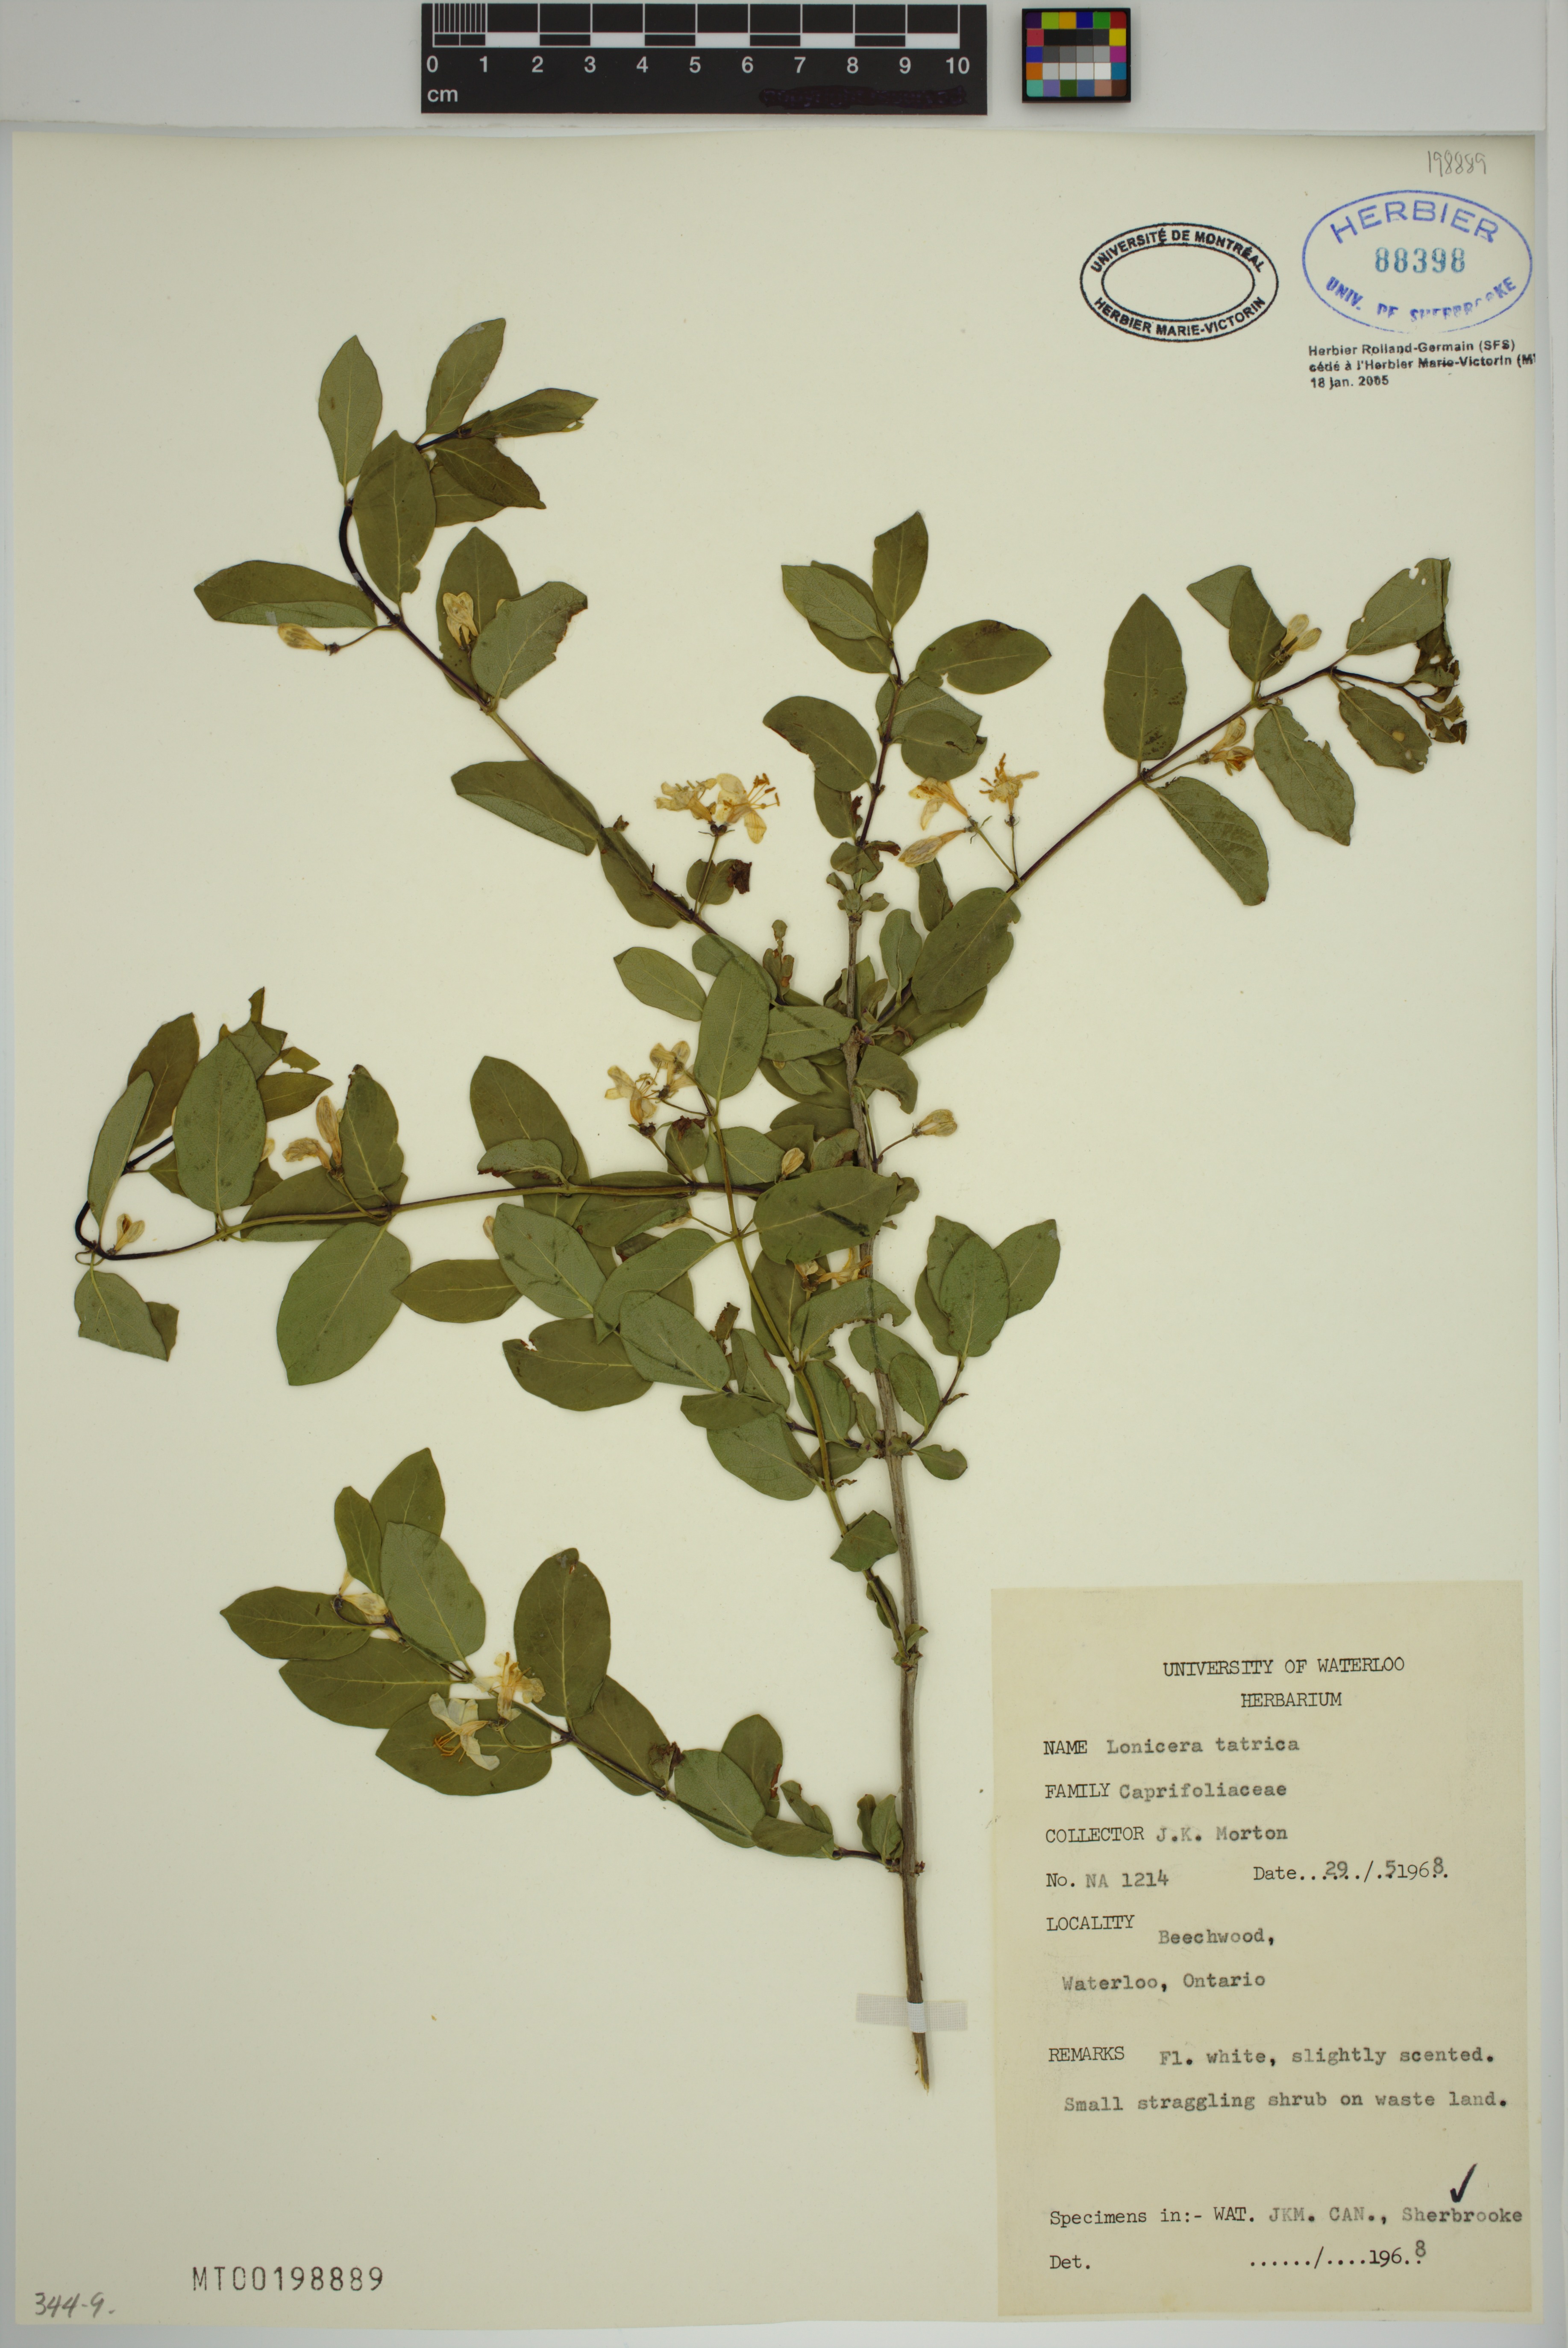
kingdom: Plantae
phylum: Tracheophyta
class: Magnoliopsida
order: Dipsacales
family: Caprifoliaceae
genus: Lonicera
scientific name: Lonicera tatarica
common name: Tatarian honeysuckle
